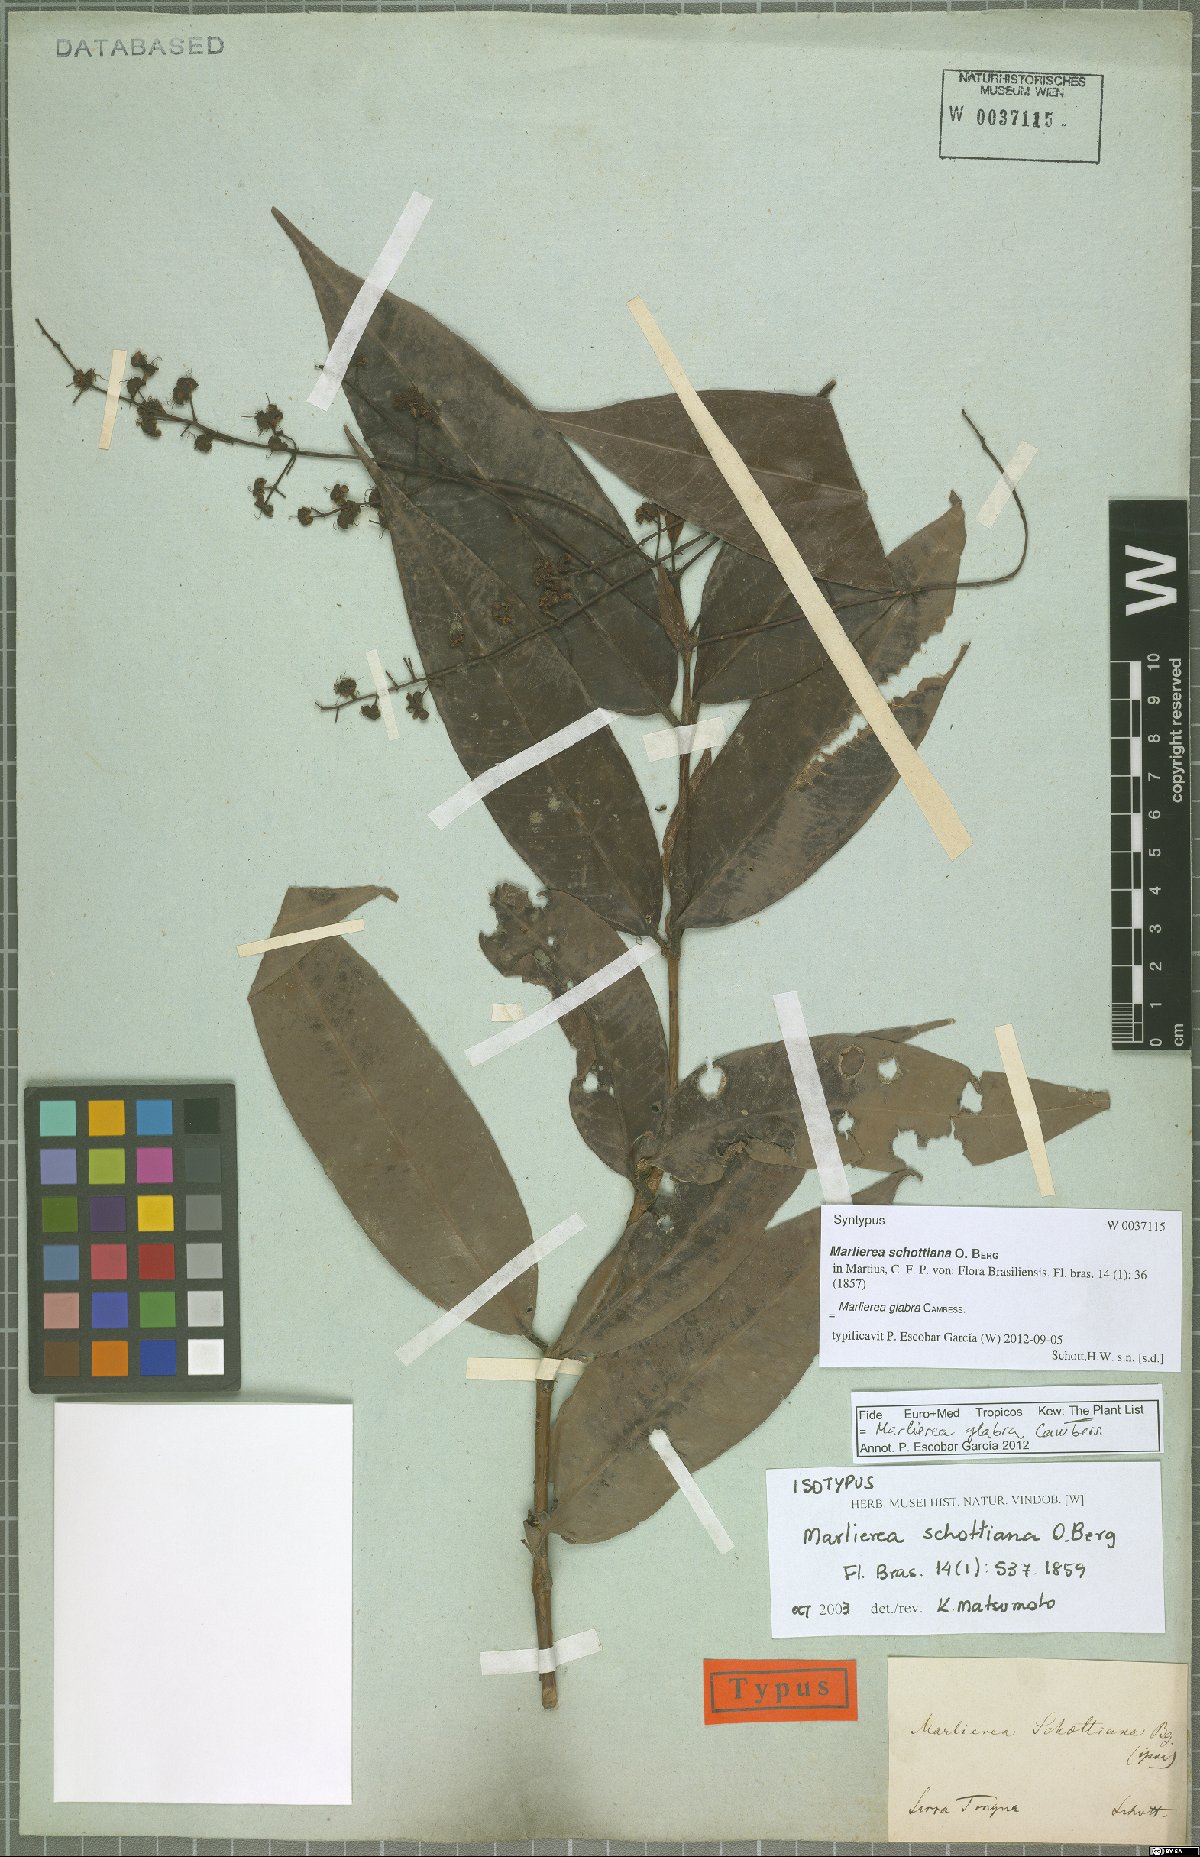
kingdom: Plantae
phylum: Tracheophyta
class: Magnoliopsida
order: Myrtales
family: Myrtaceae
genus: Myrcia
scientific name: Myrcia neoglabra
